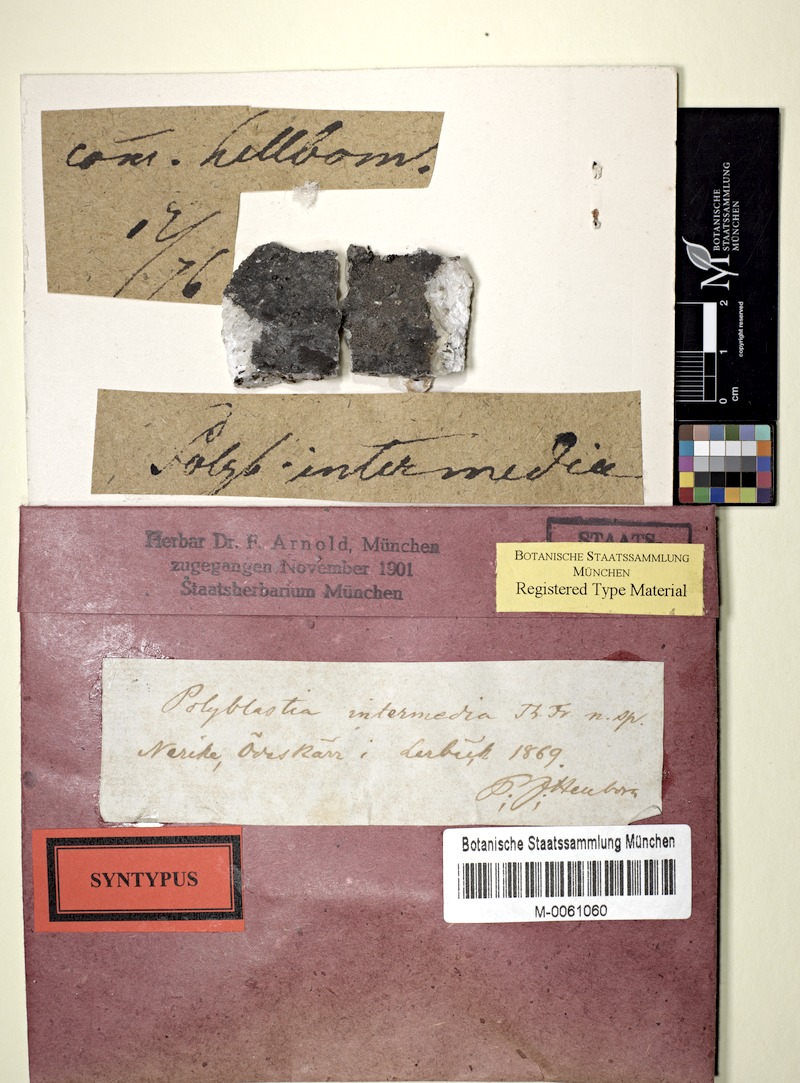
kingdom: Fungi
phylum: Ascomycota
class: Eurotiomycetes
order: Verrucariales
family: Verrucariaceae
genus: Polyblastia
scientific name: Polyblastia intermedia
